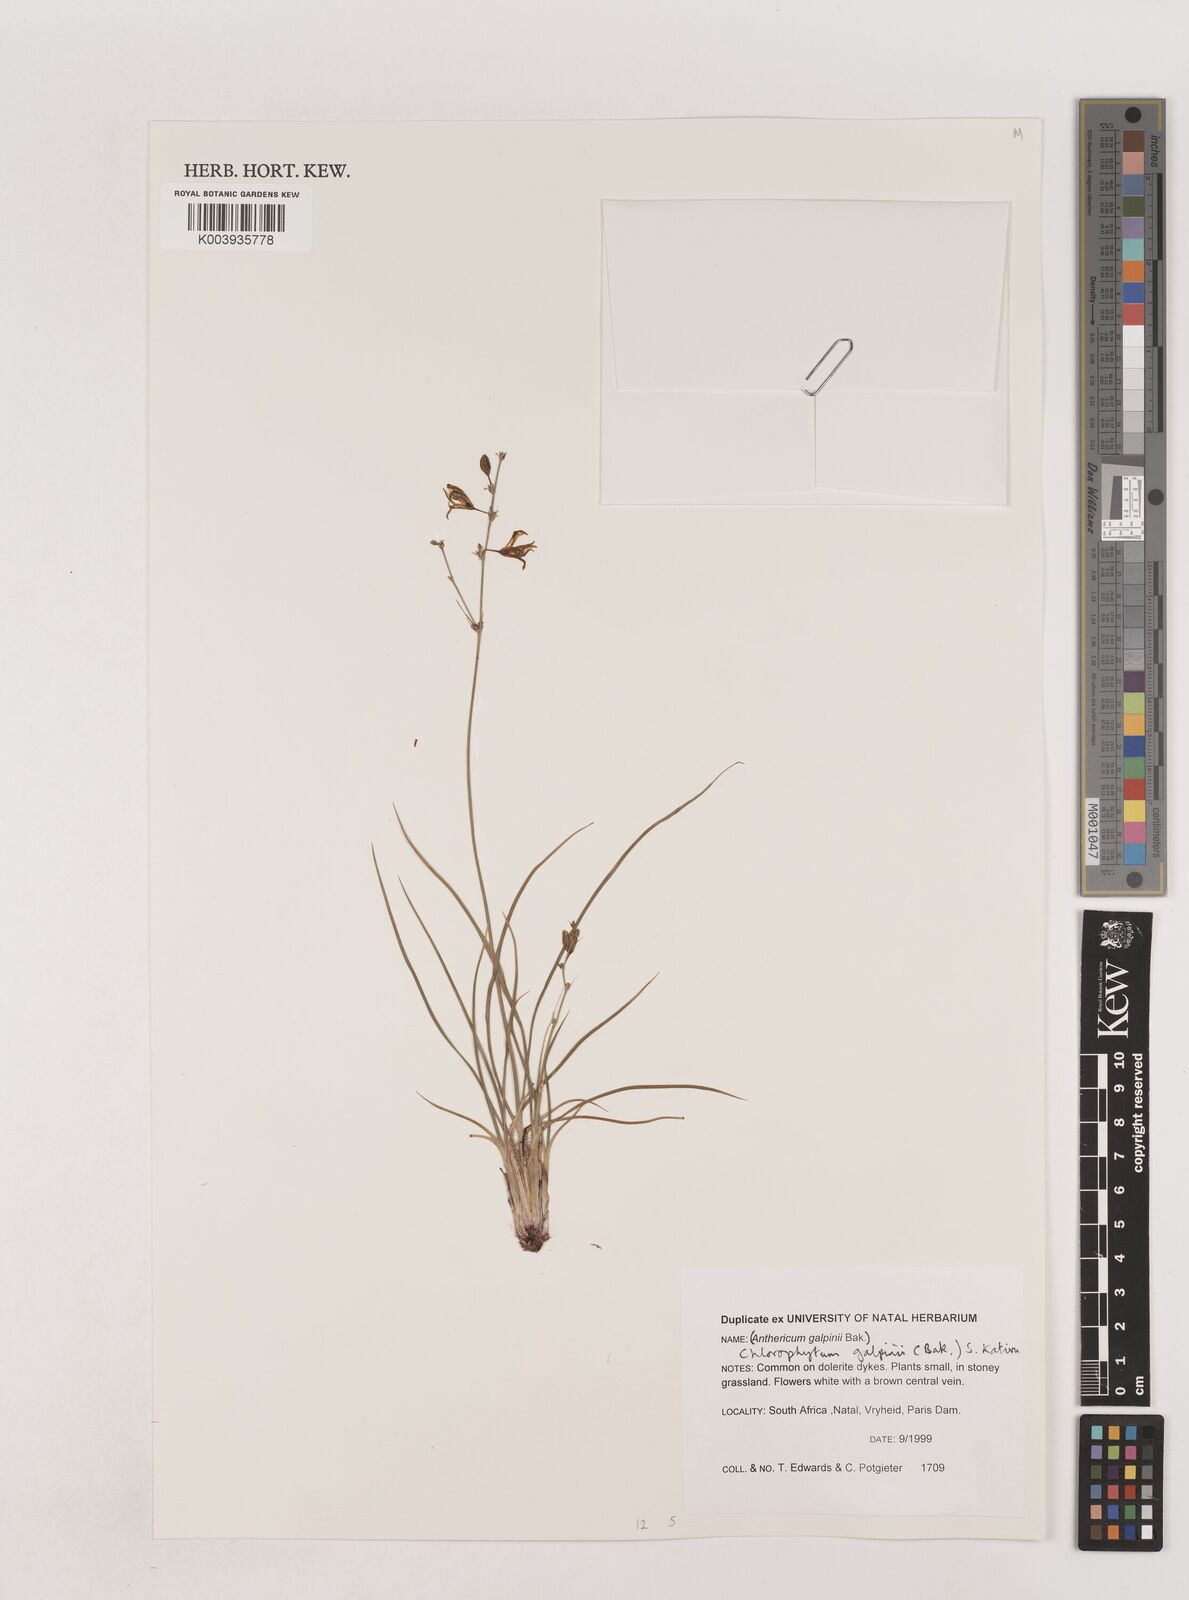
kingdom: Plantae
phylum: Tracheophyta
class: Liliopsida
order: Asparagales
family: Asparagaceae
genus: Chlorophytum
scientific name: Chlorophytum galpinii
